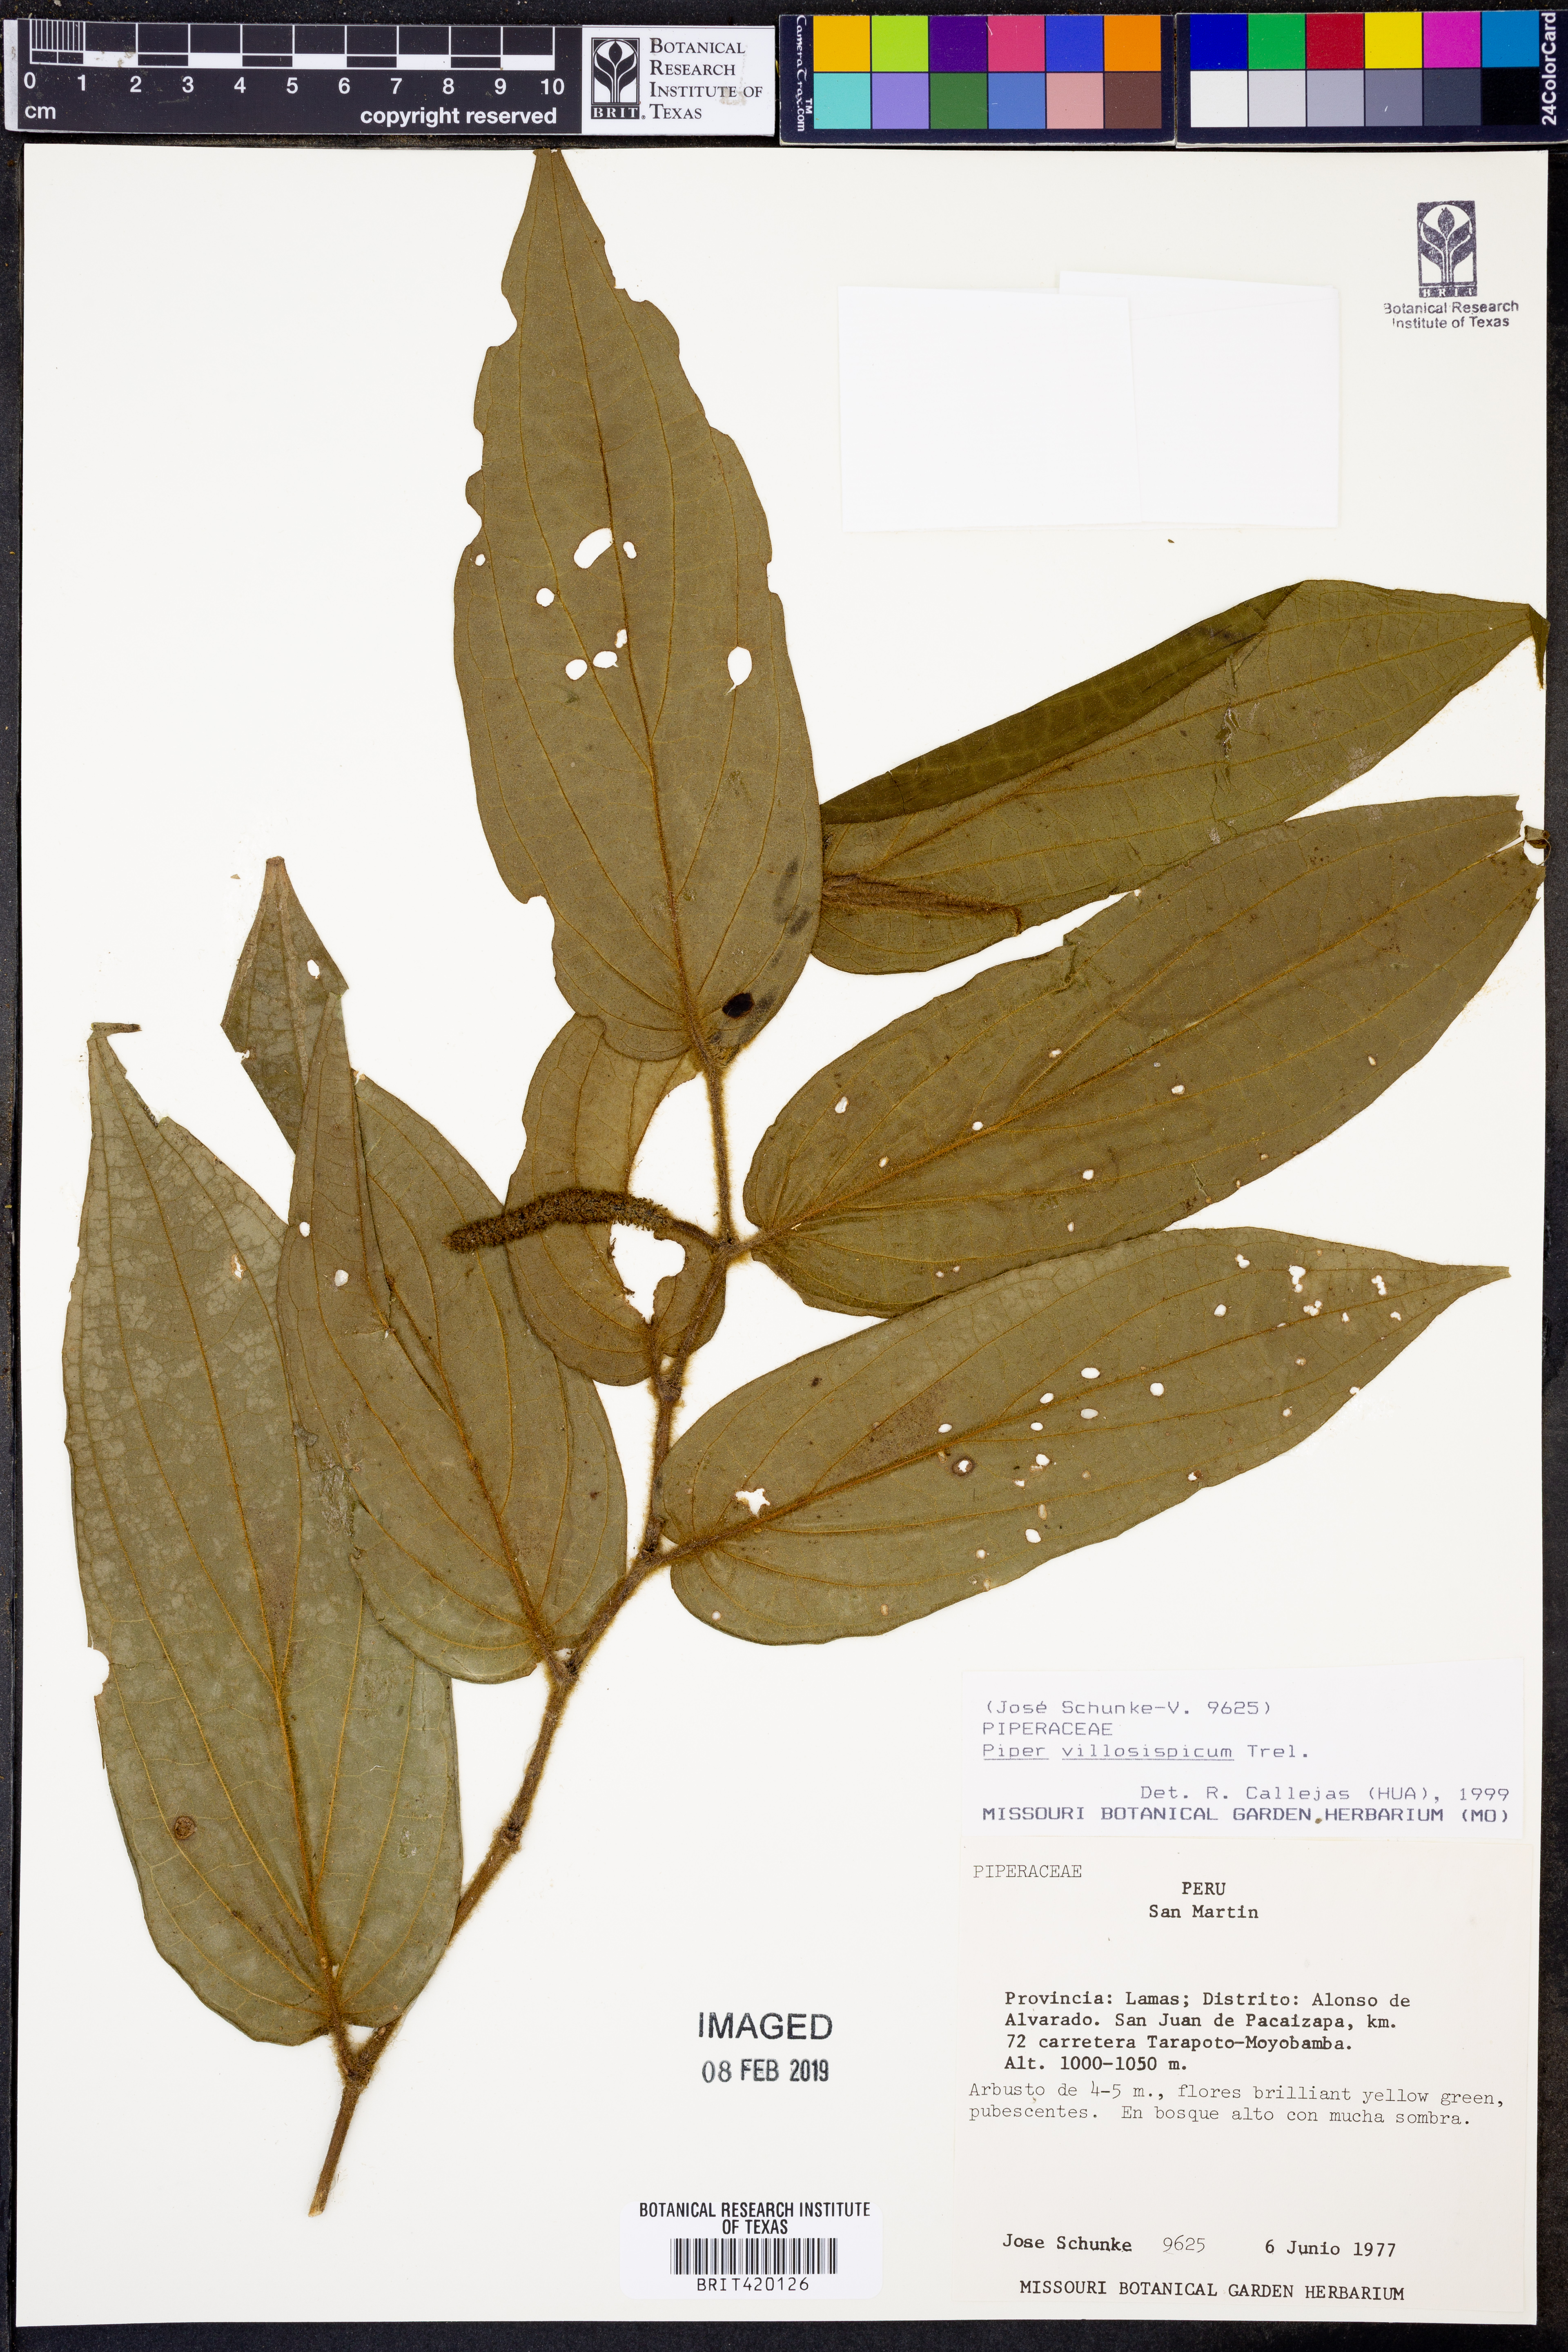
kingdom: Plantae
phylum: Tracheophyta
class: Magnoliopsida
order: Piperales
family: Piperaceae
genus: Piper
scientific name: Piper villosispicum
